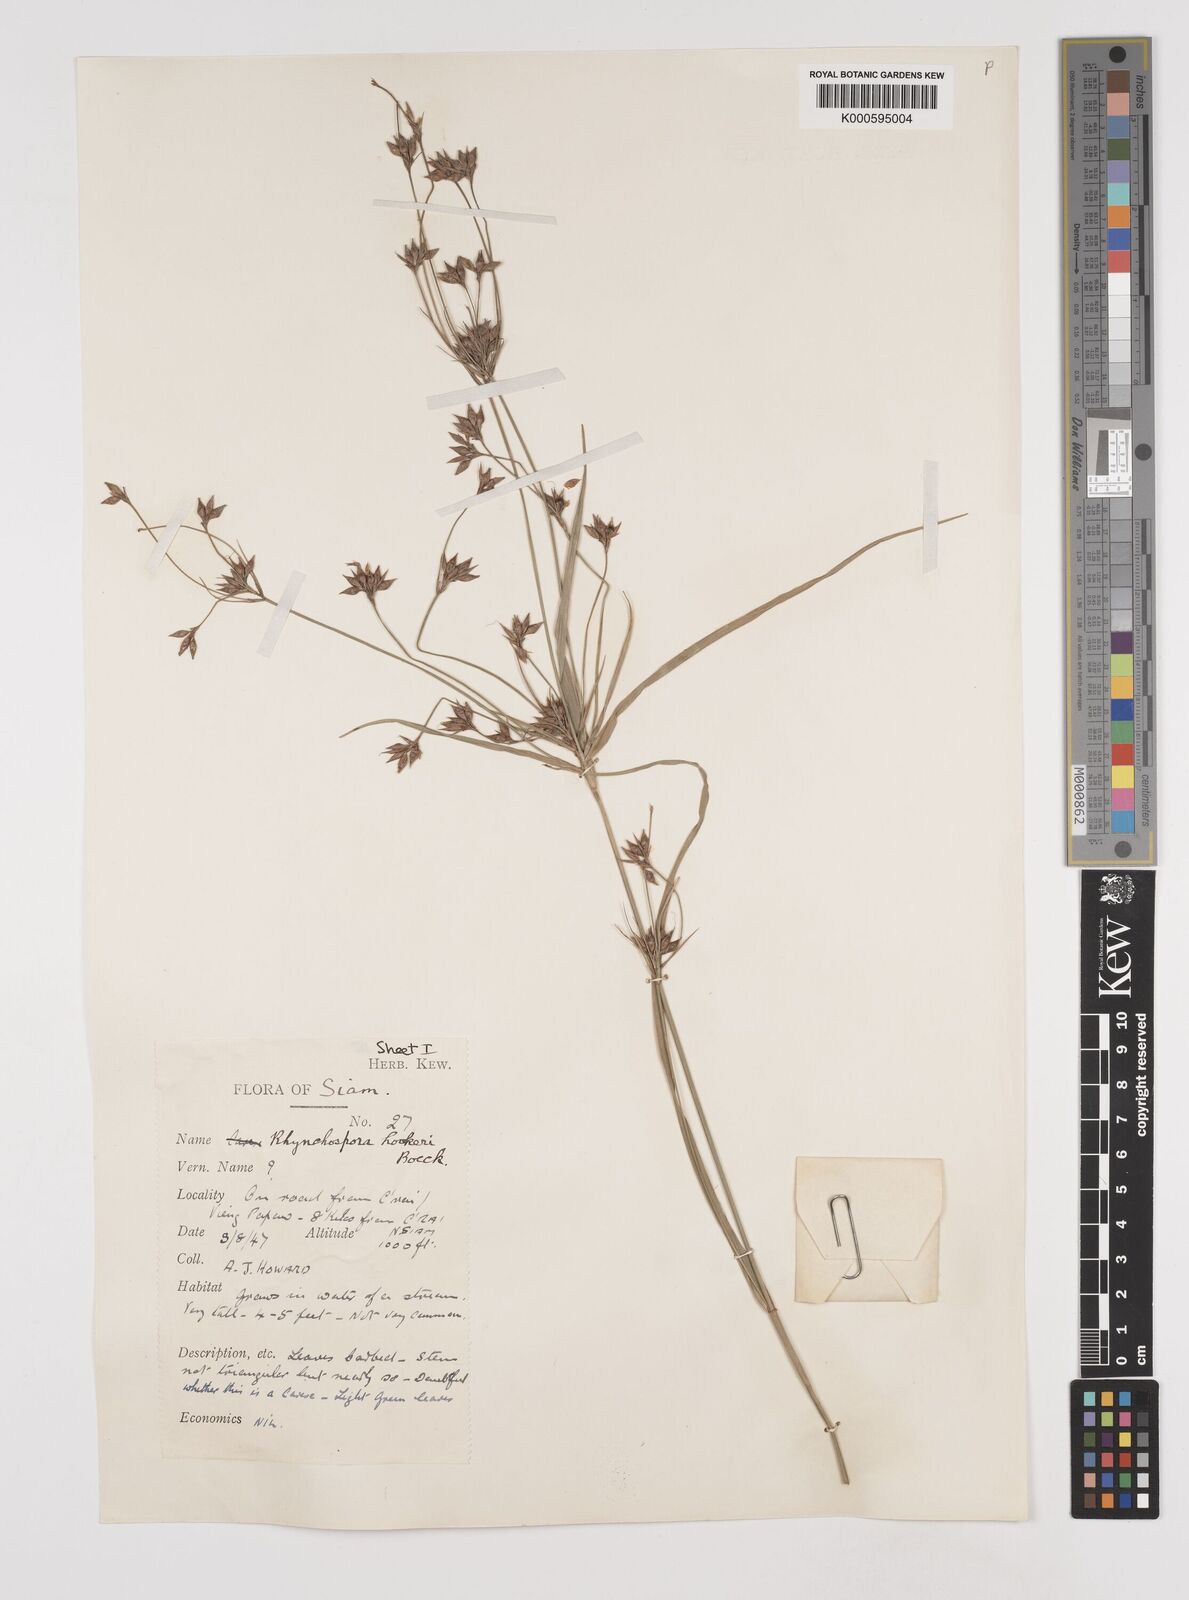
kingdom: Plantae
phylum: Tracheophyta
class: Liliopsida
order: Poales
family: Cyperaceae
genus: Rhynchospora
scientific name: Rhynchospora hookeri
